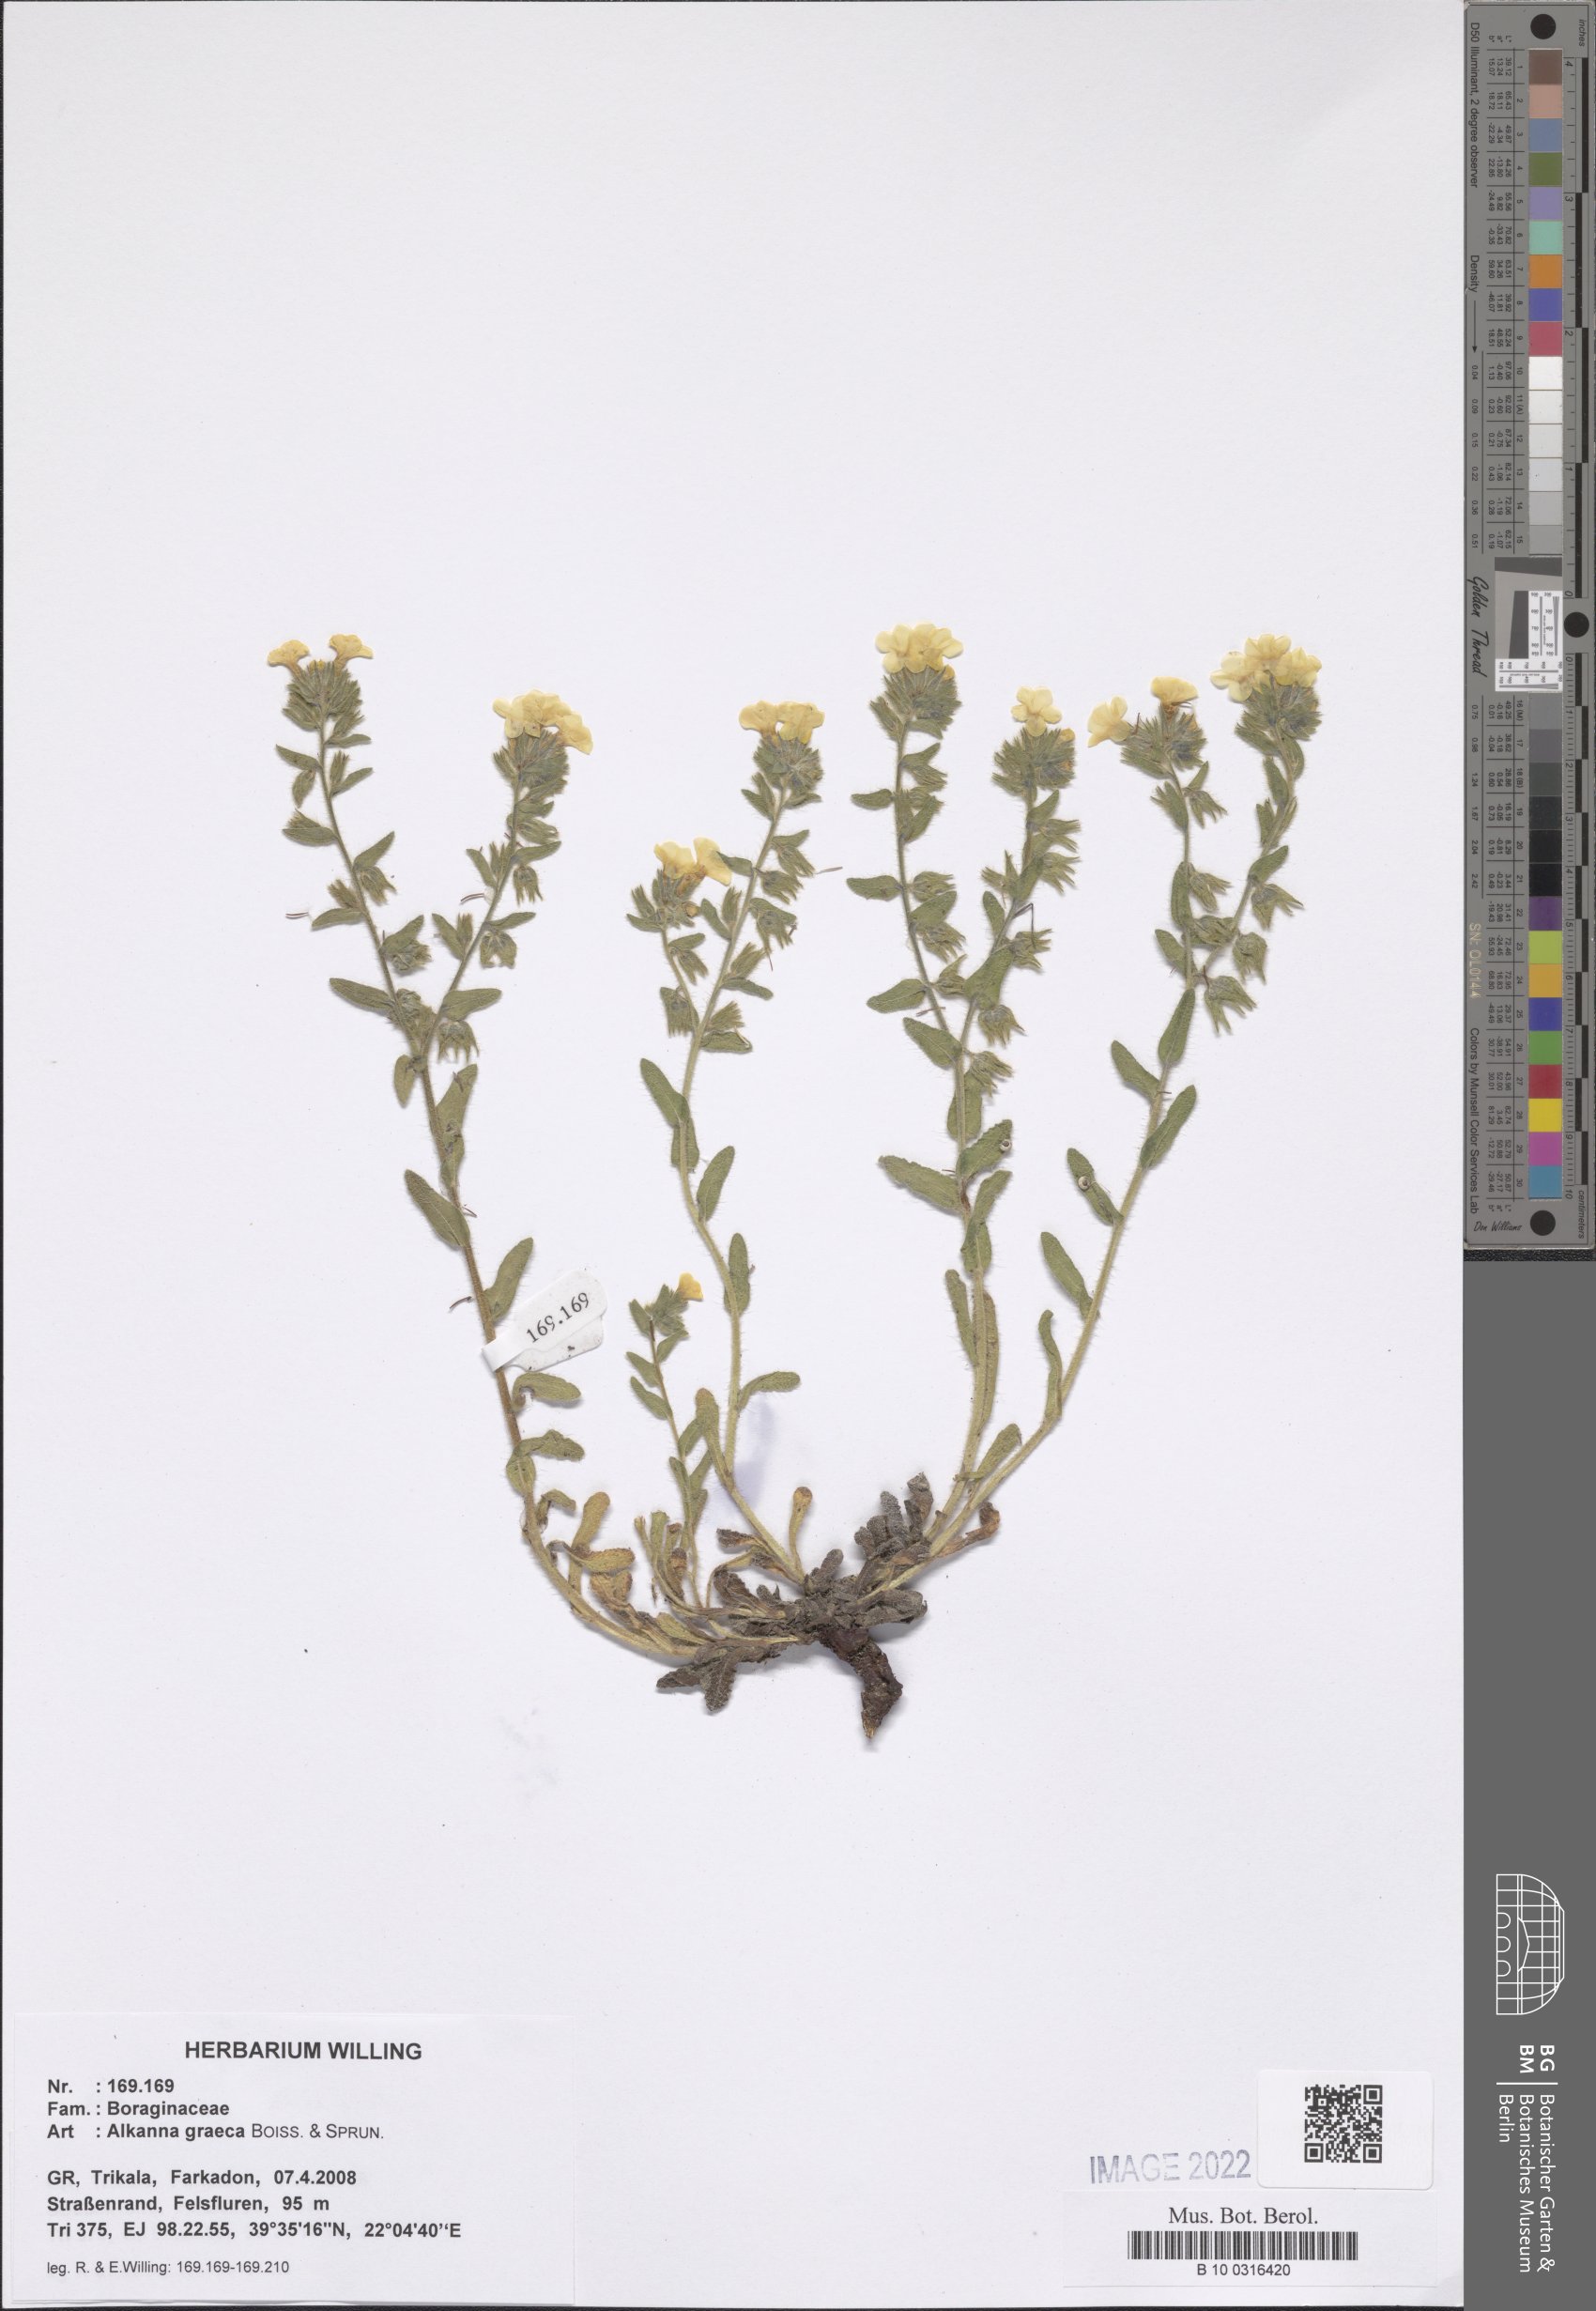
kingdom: Plantae
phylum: Tracheophyta
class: Magnoliopsida
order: Boraginales
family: Boraginaceae
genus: Alkanna
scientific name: Alkanna graeca
